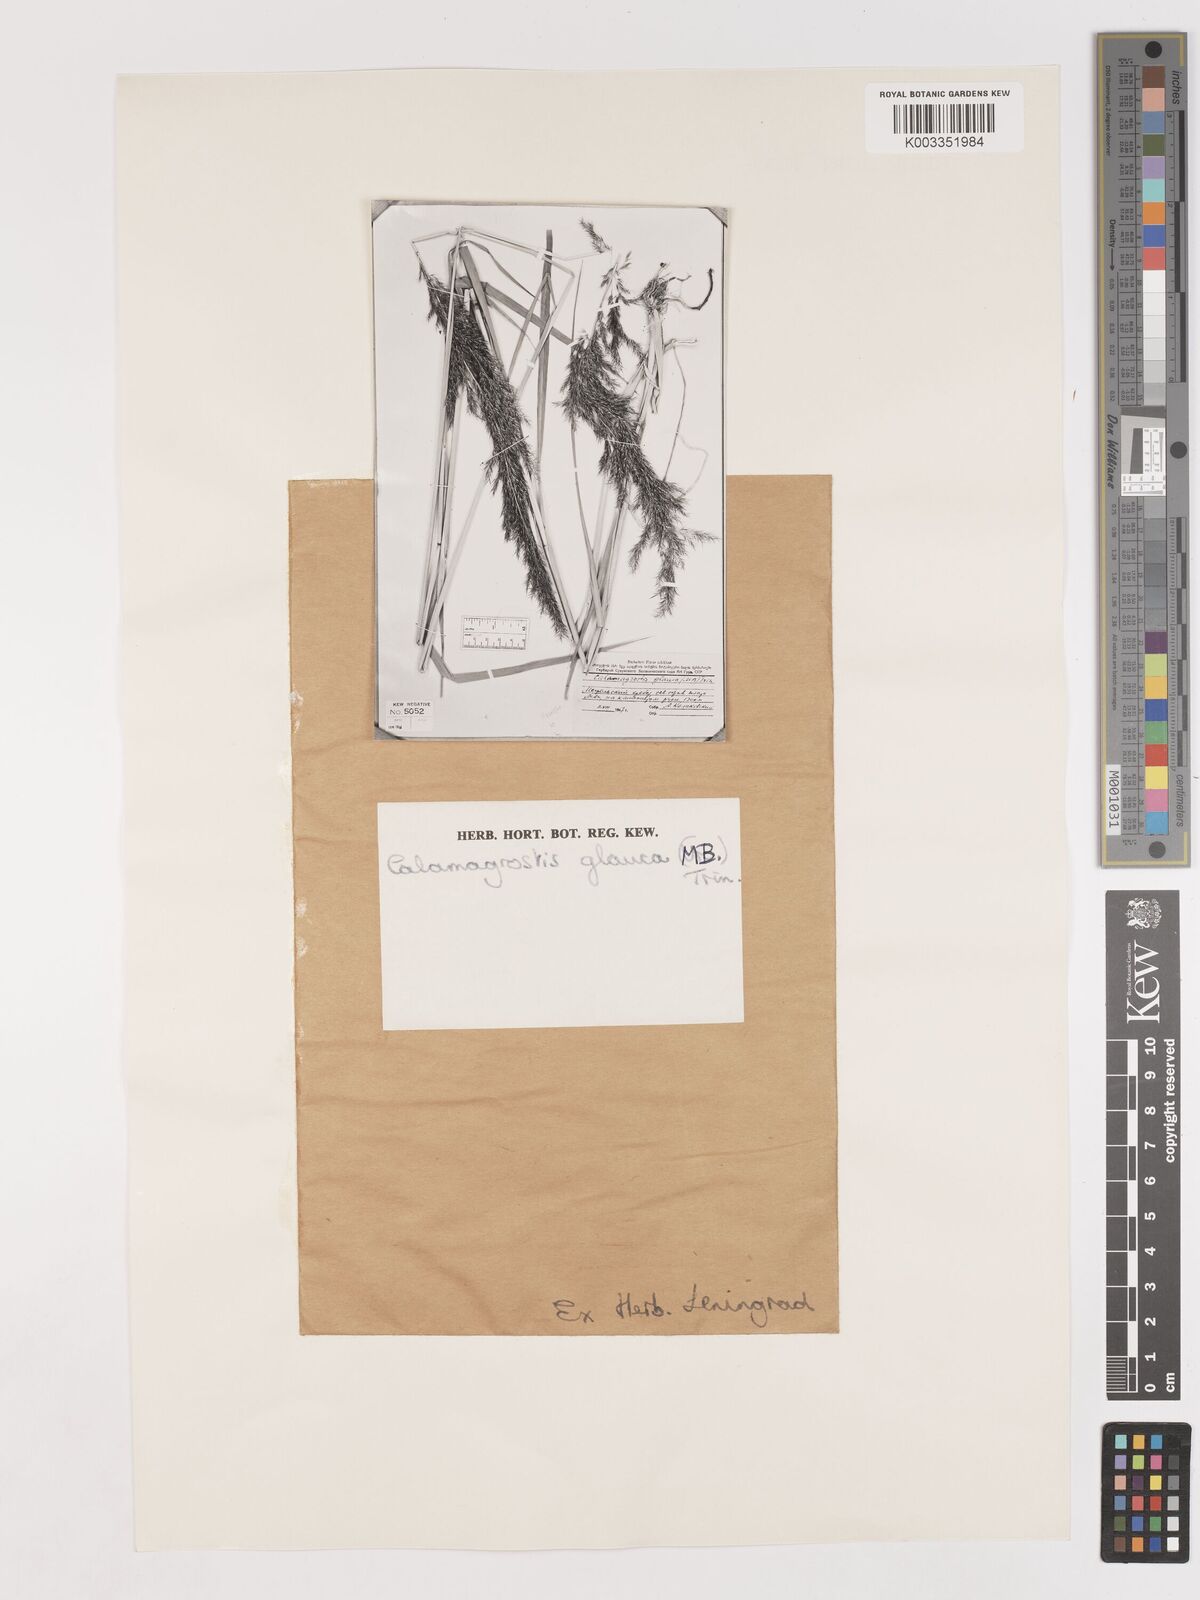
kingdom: Plantae
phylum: Tracheophyta
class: Liliopsida
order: Poales
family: Poaceae
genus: Calamagrostis
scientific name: Calamagrostis pseudophragmites
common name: Coastal small-reed
